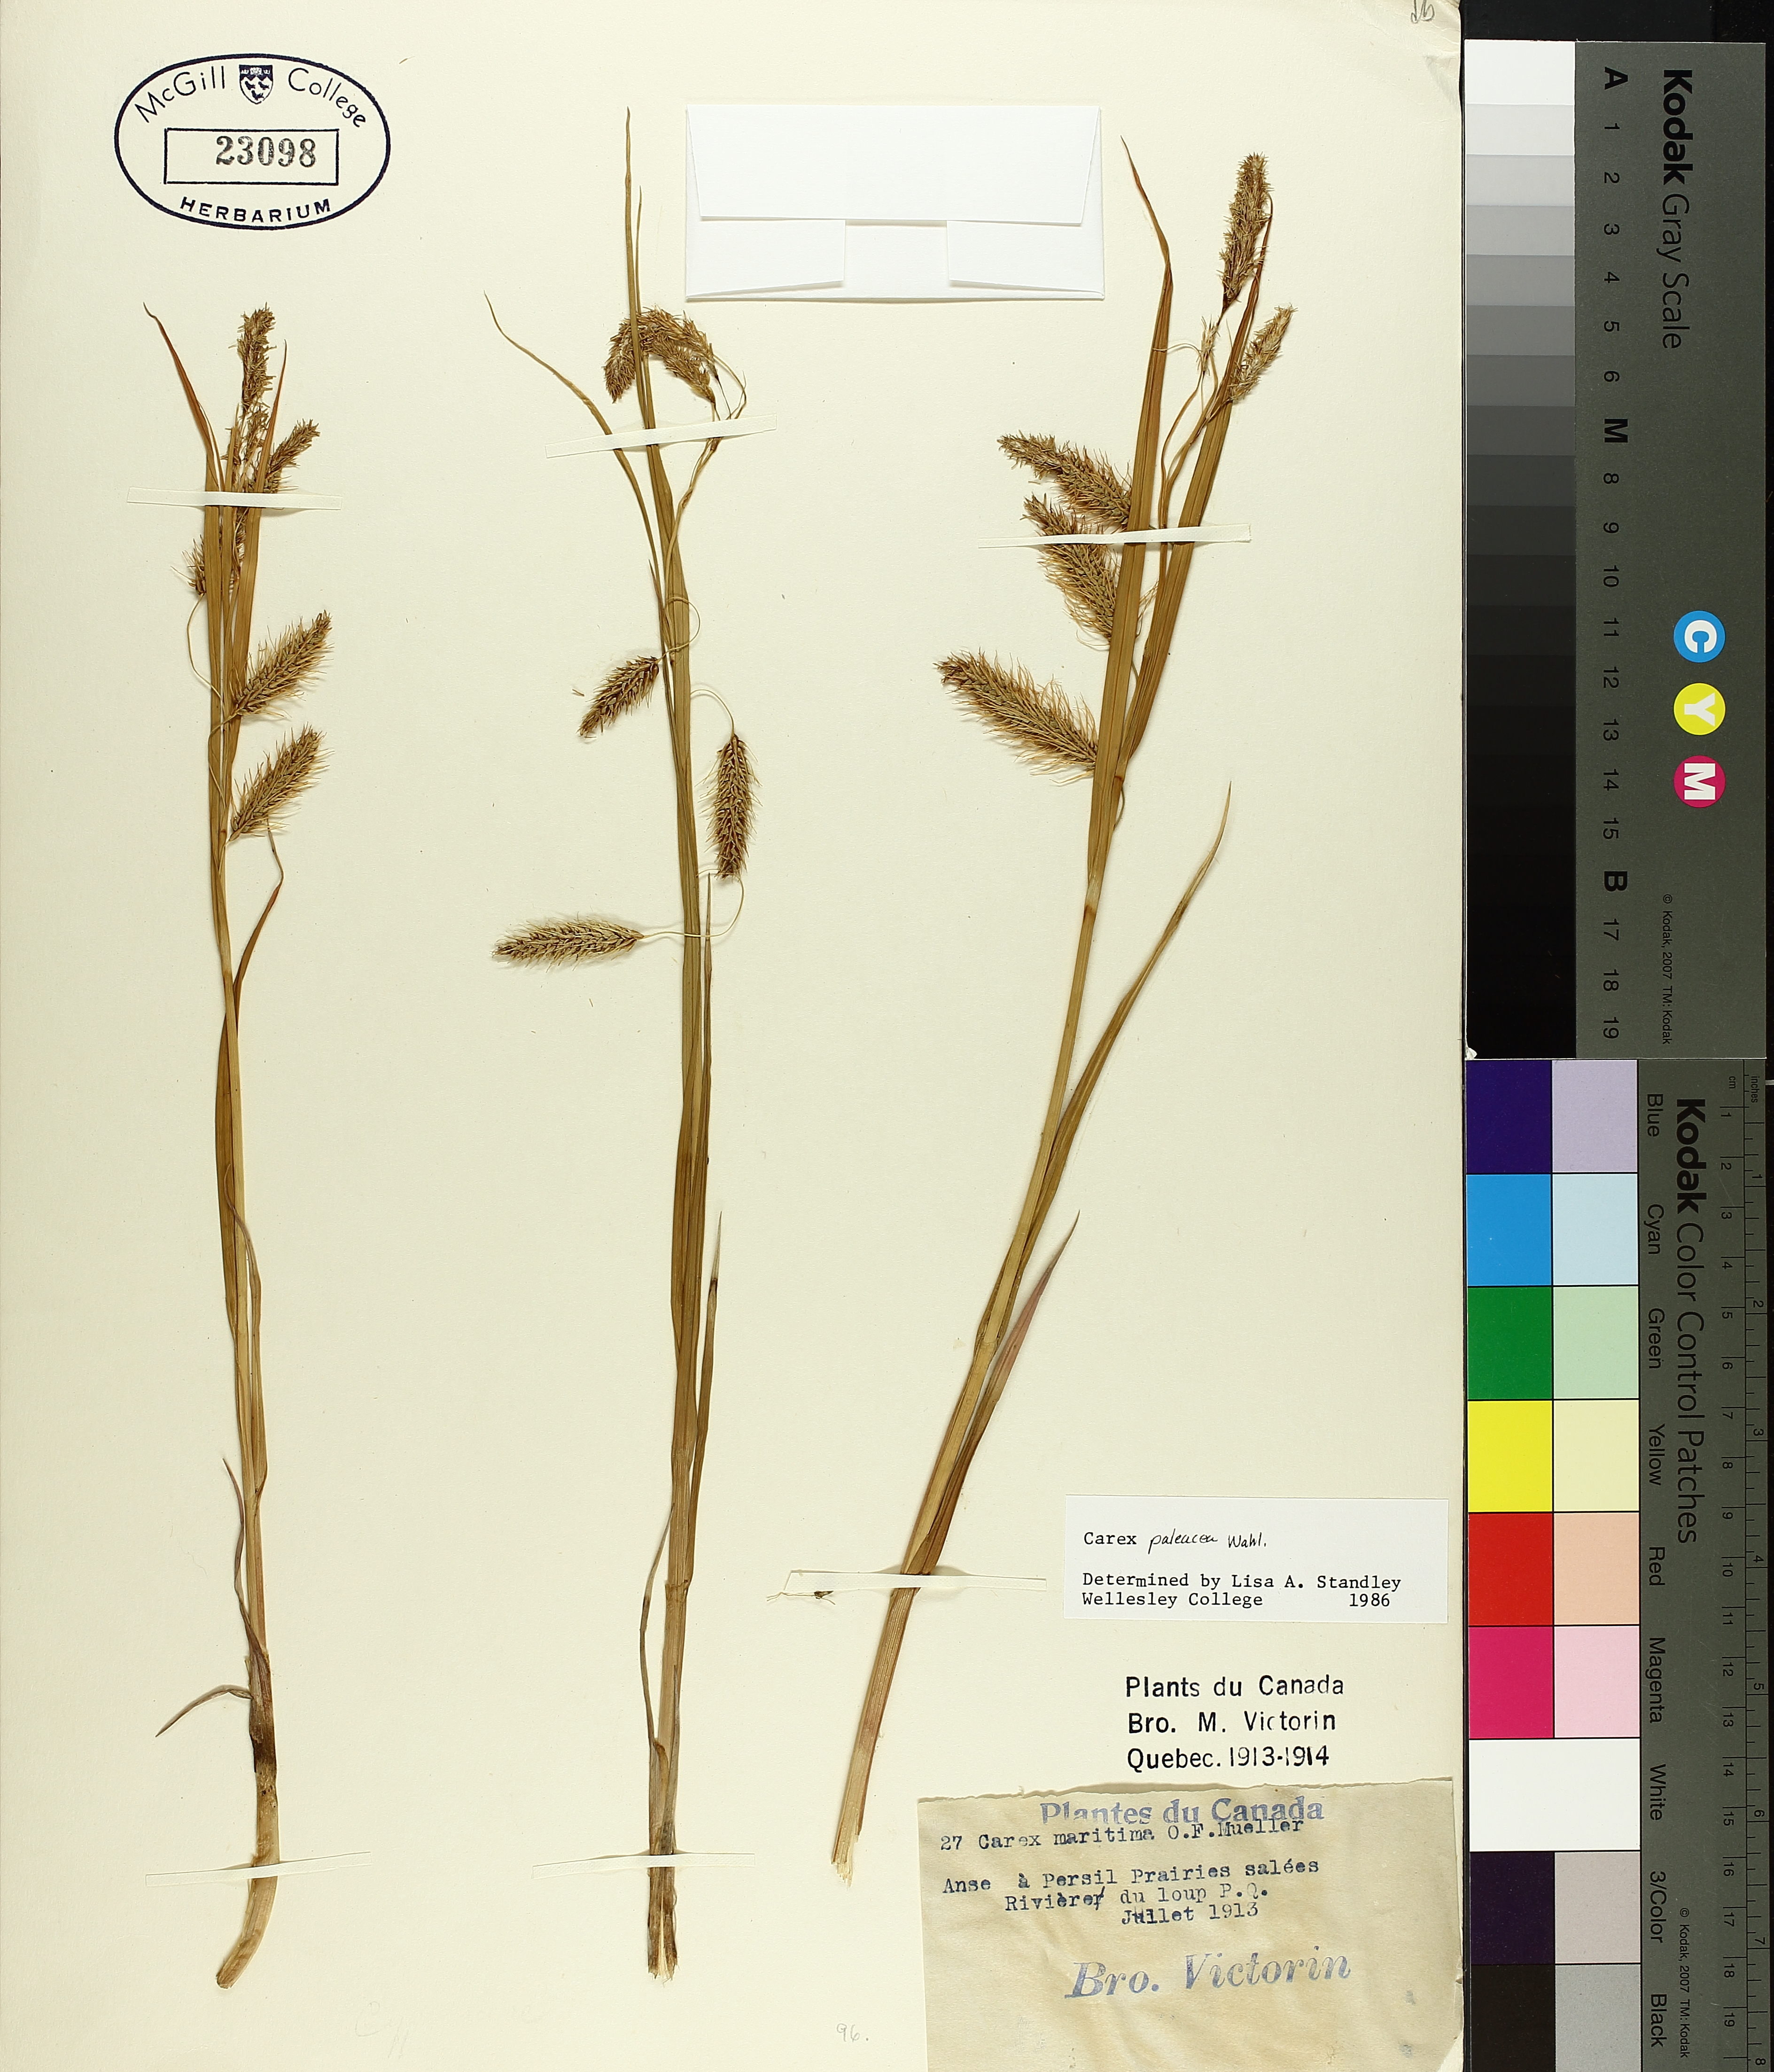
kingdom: Plantae
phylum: Tracheophyta
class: Liliopsida
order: Poales
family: Cyperaceae
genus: Carex
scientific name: Carex paleacea
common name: Chaffy sedge
